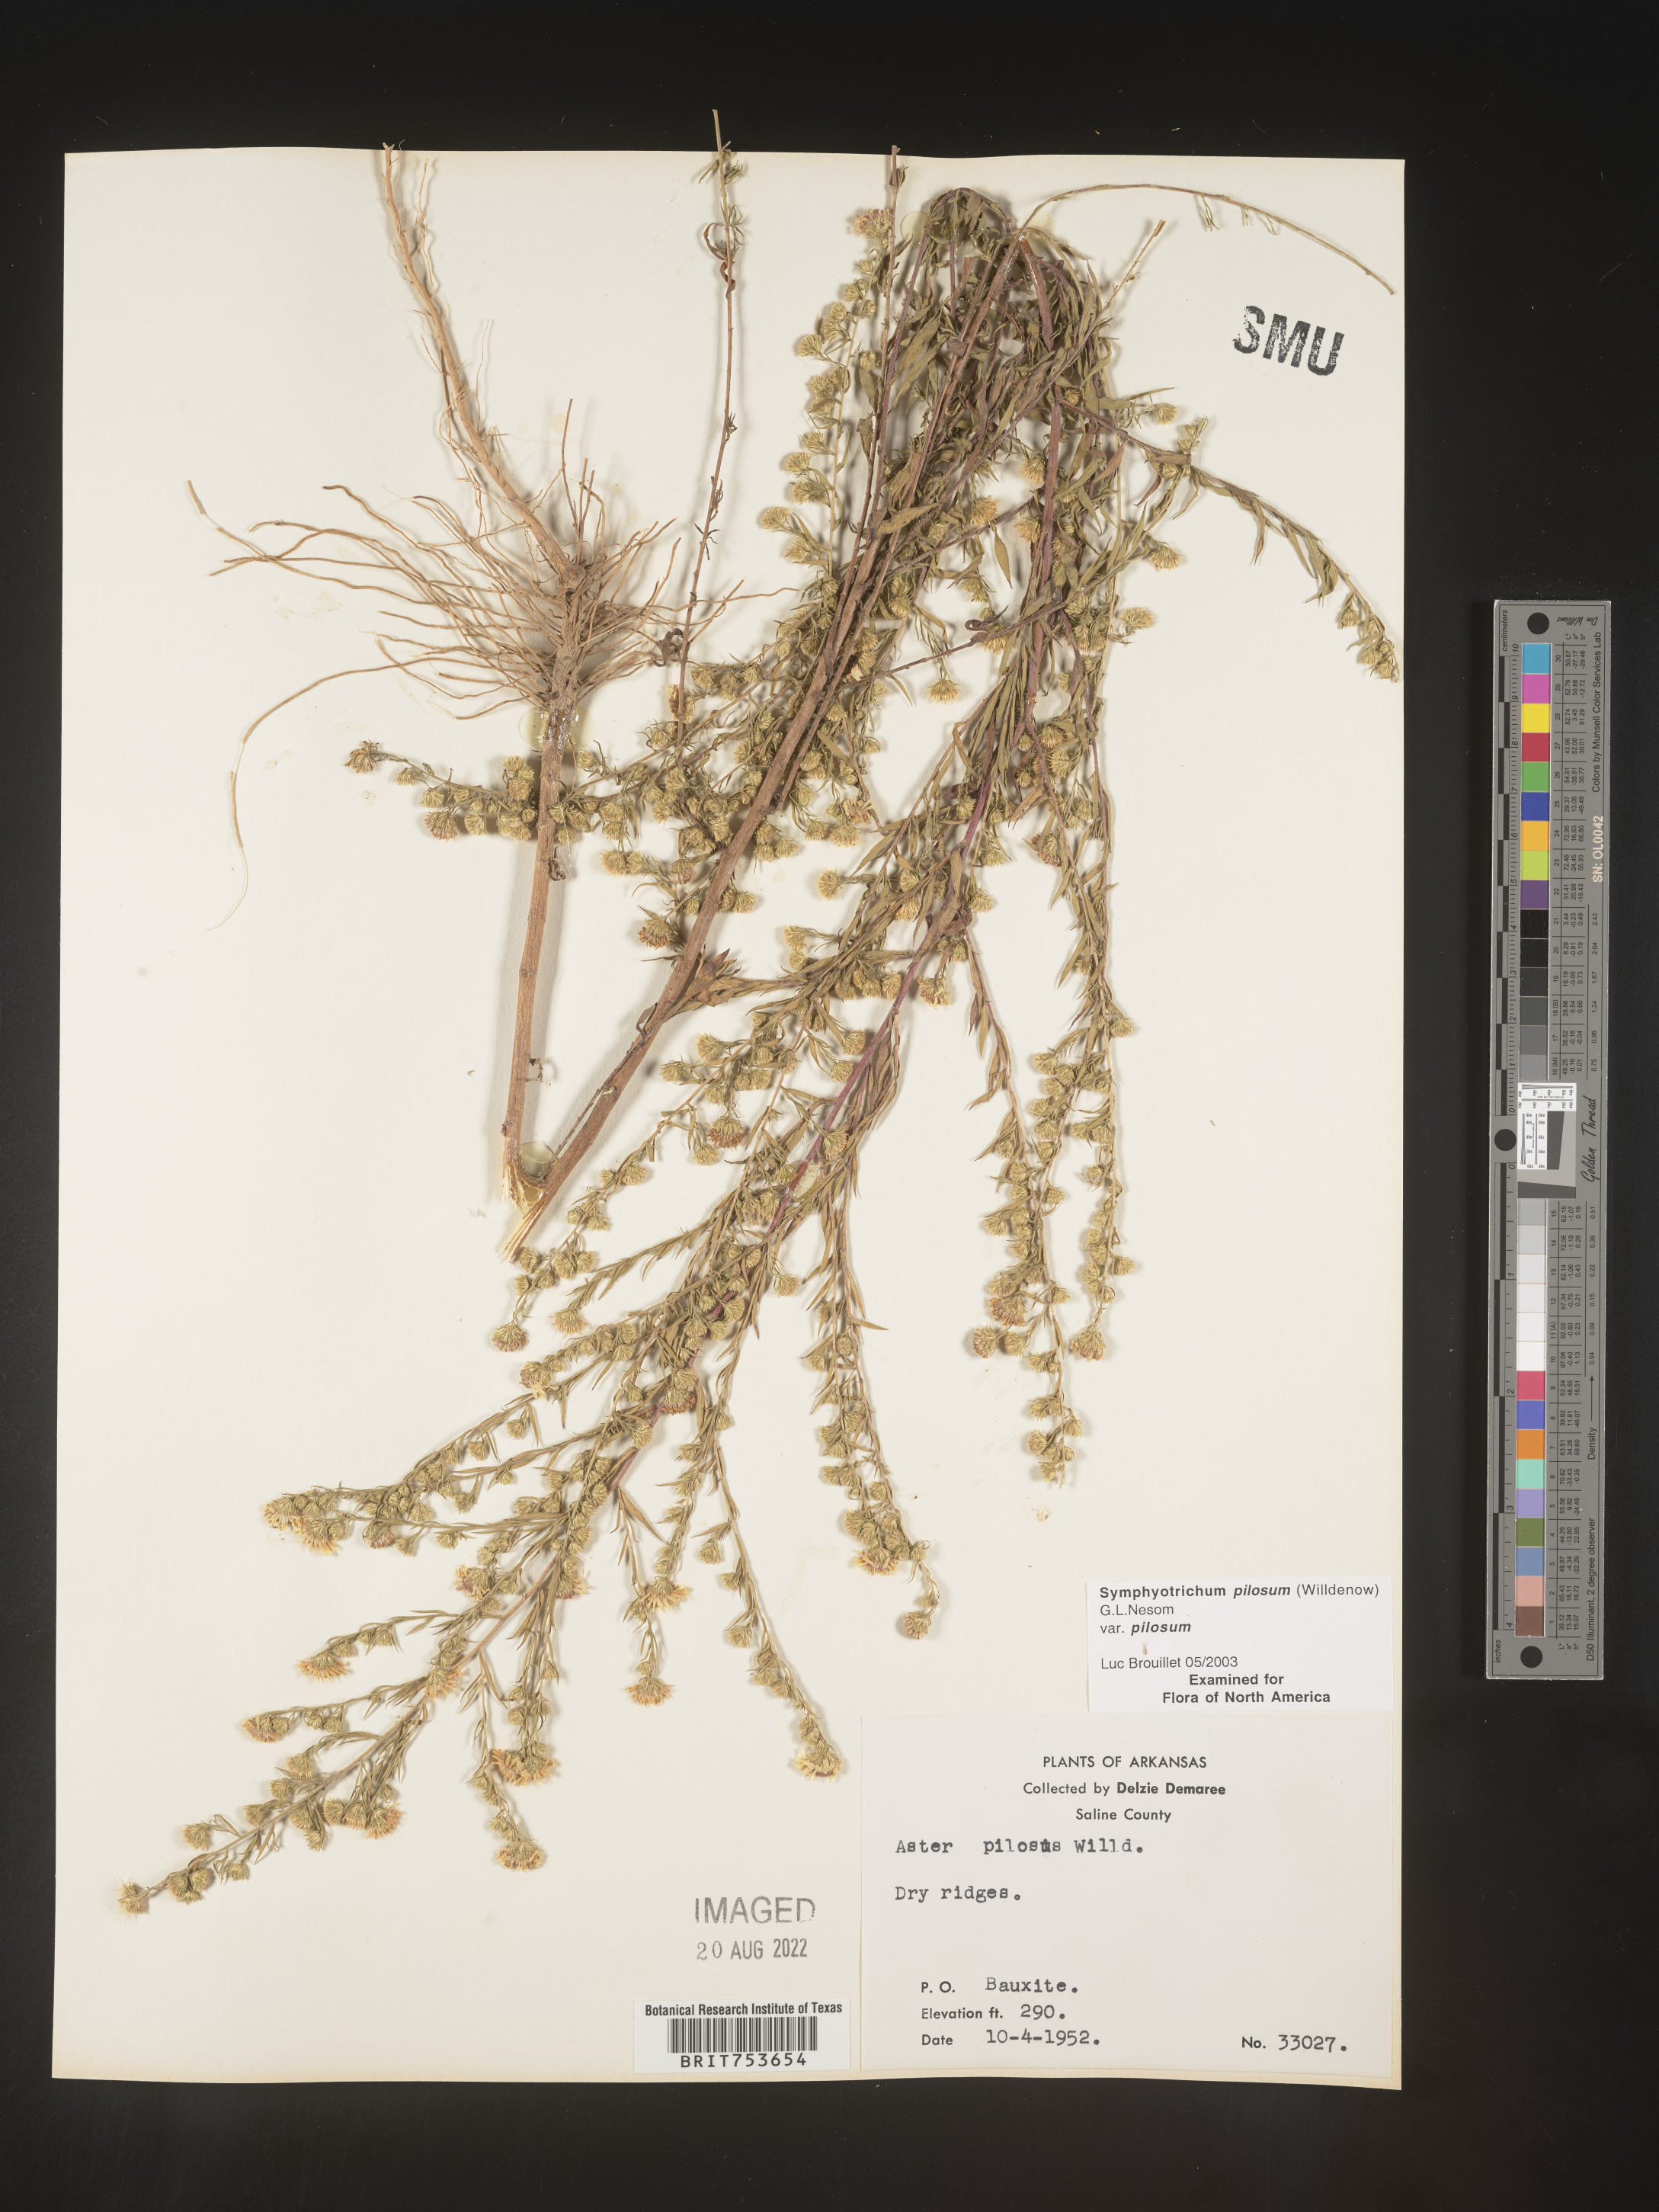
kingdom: Plantae
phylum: Tracheophyta
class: Magnoliopsida
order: Asterales
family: Asteraceae
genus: Symphyotrichum
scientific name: Symphyotrichum pilosum
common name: Awl aster
